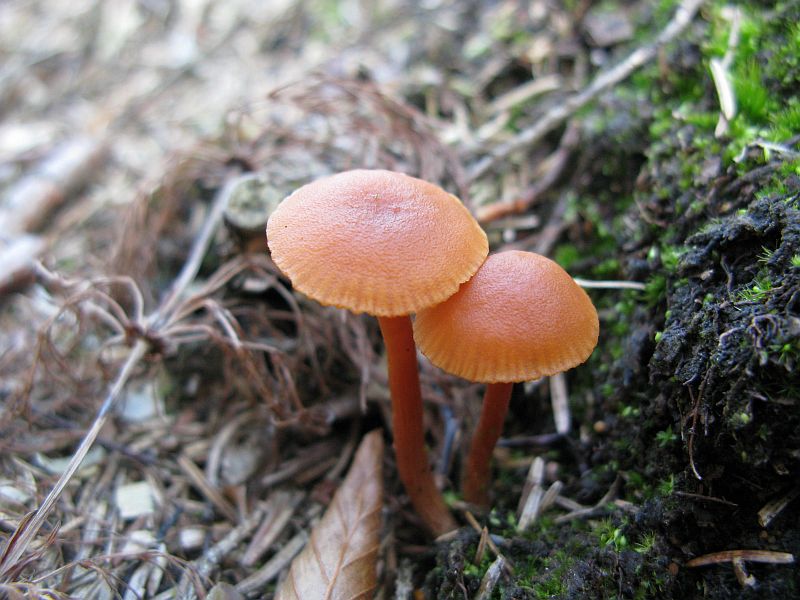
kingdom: Fungi
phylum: Basidiomycota
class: Agaricomycetes
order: Agaricales
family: Hydnangiaceae
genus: Laccaria
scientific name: Laccaria laccata
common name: rød ametysthat
